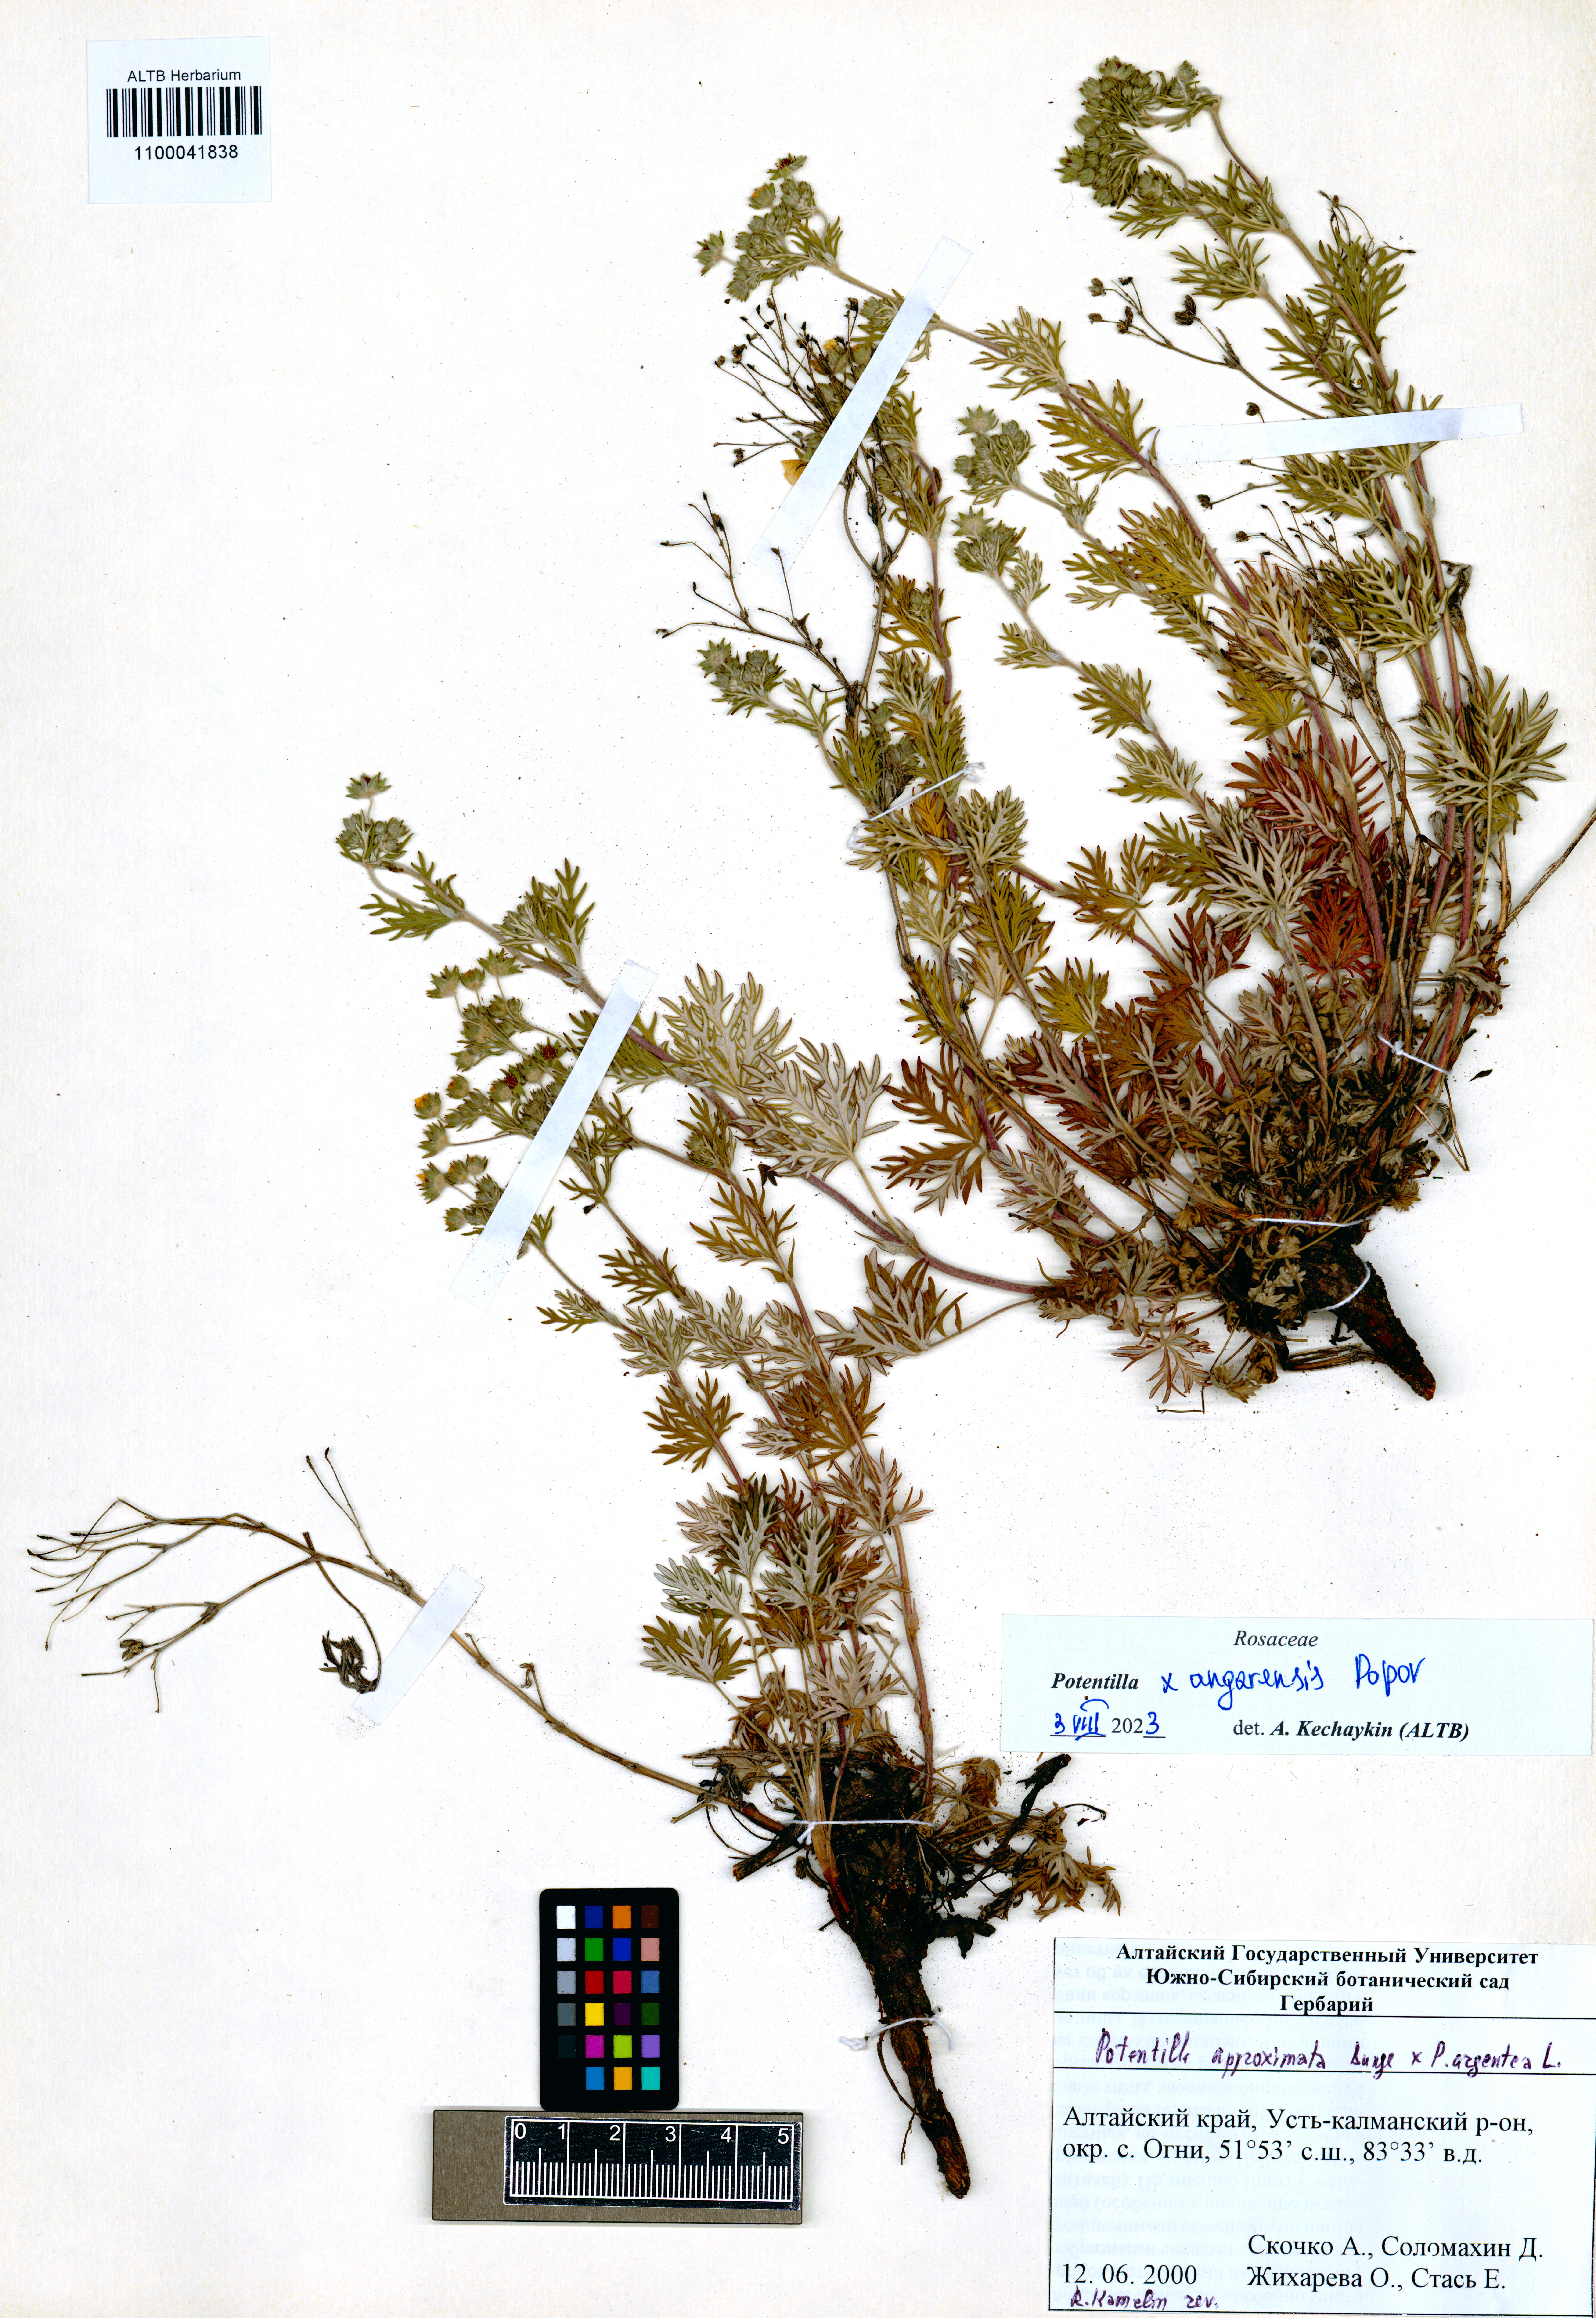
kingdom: Plantae
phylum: Tracheophyta
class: Magnoliopsida
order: Rosales
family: Rosaceae
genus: Potentilla
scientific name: Potentilla angarensis
